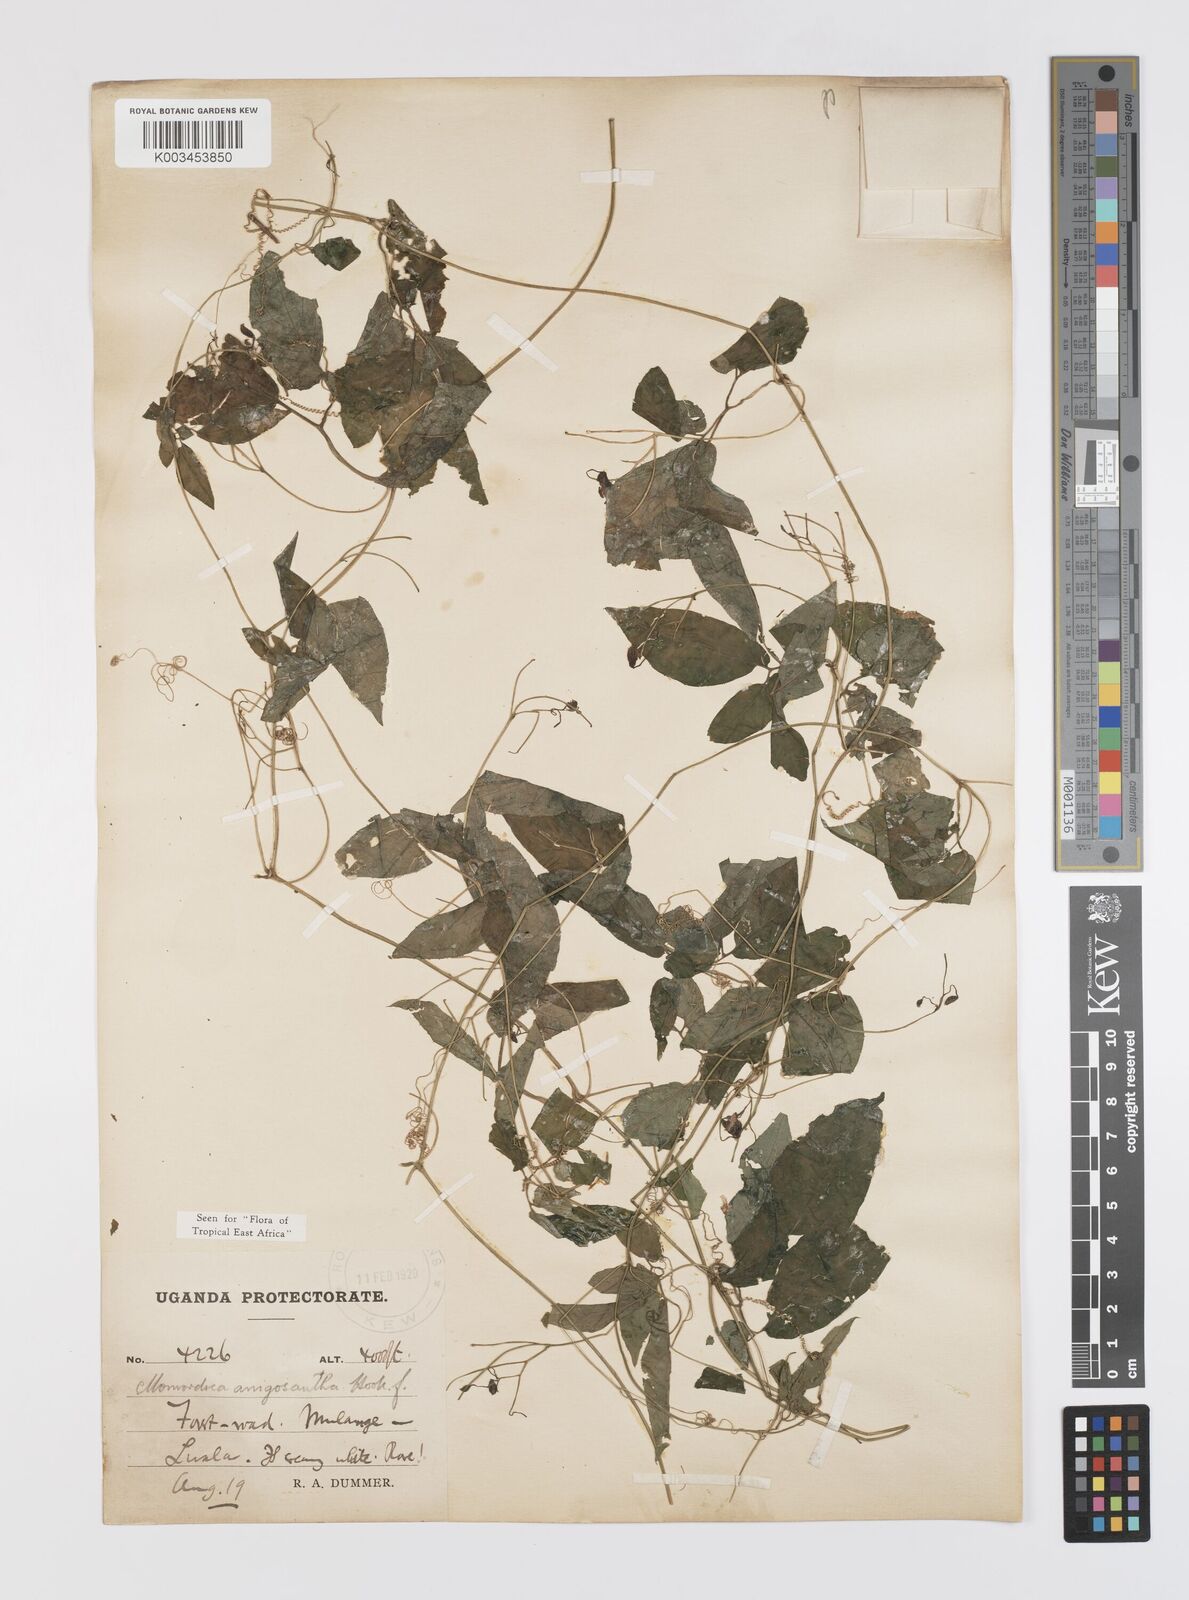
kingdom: Plantae
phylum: Tracheophyta
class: Magnoliopsida
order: Cucurbitales
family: Cucurbitaceae
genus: Momordica
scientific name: Momordica anigosantha
